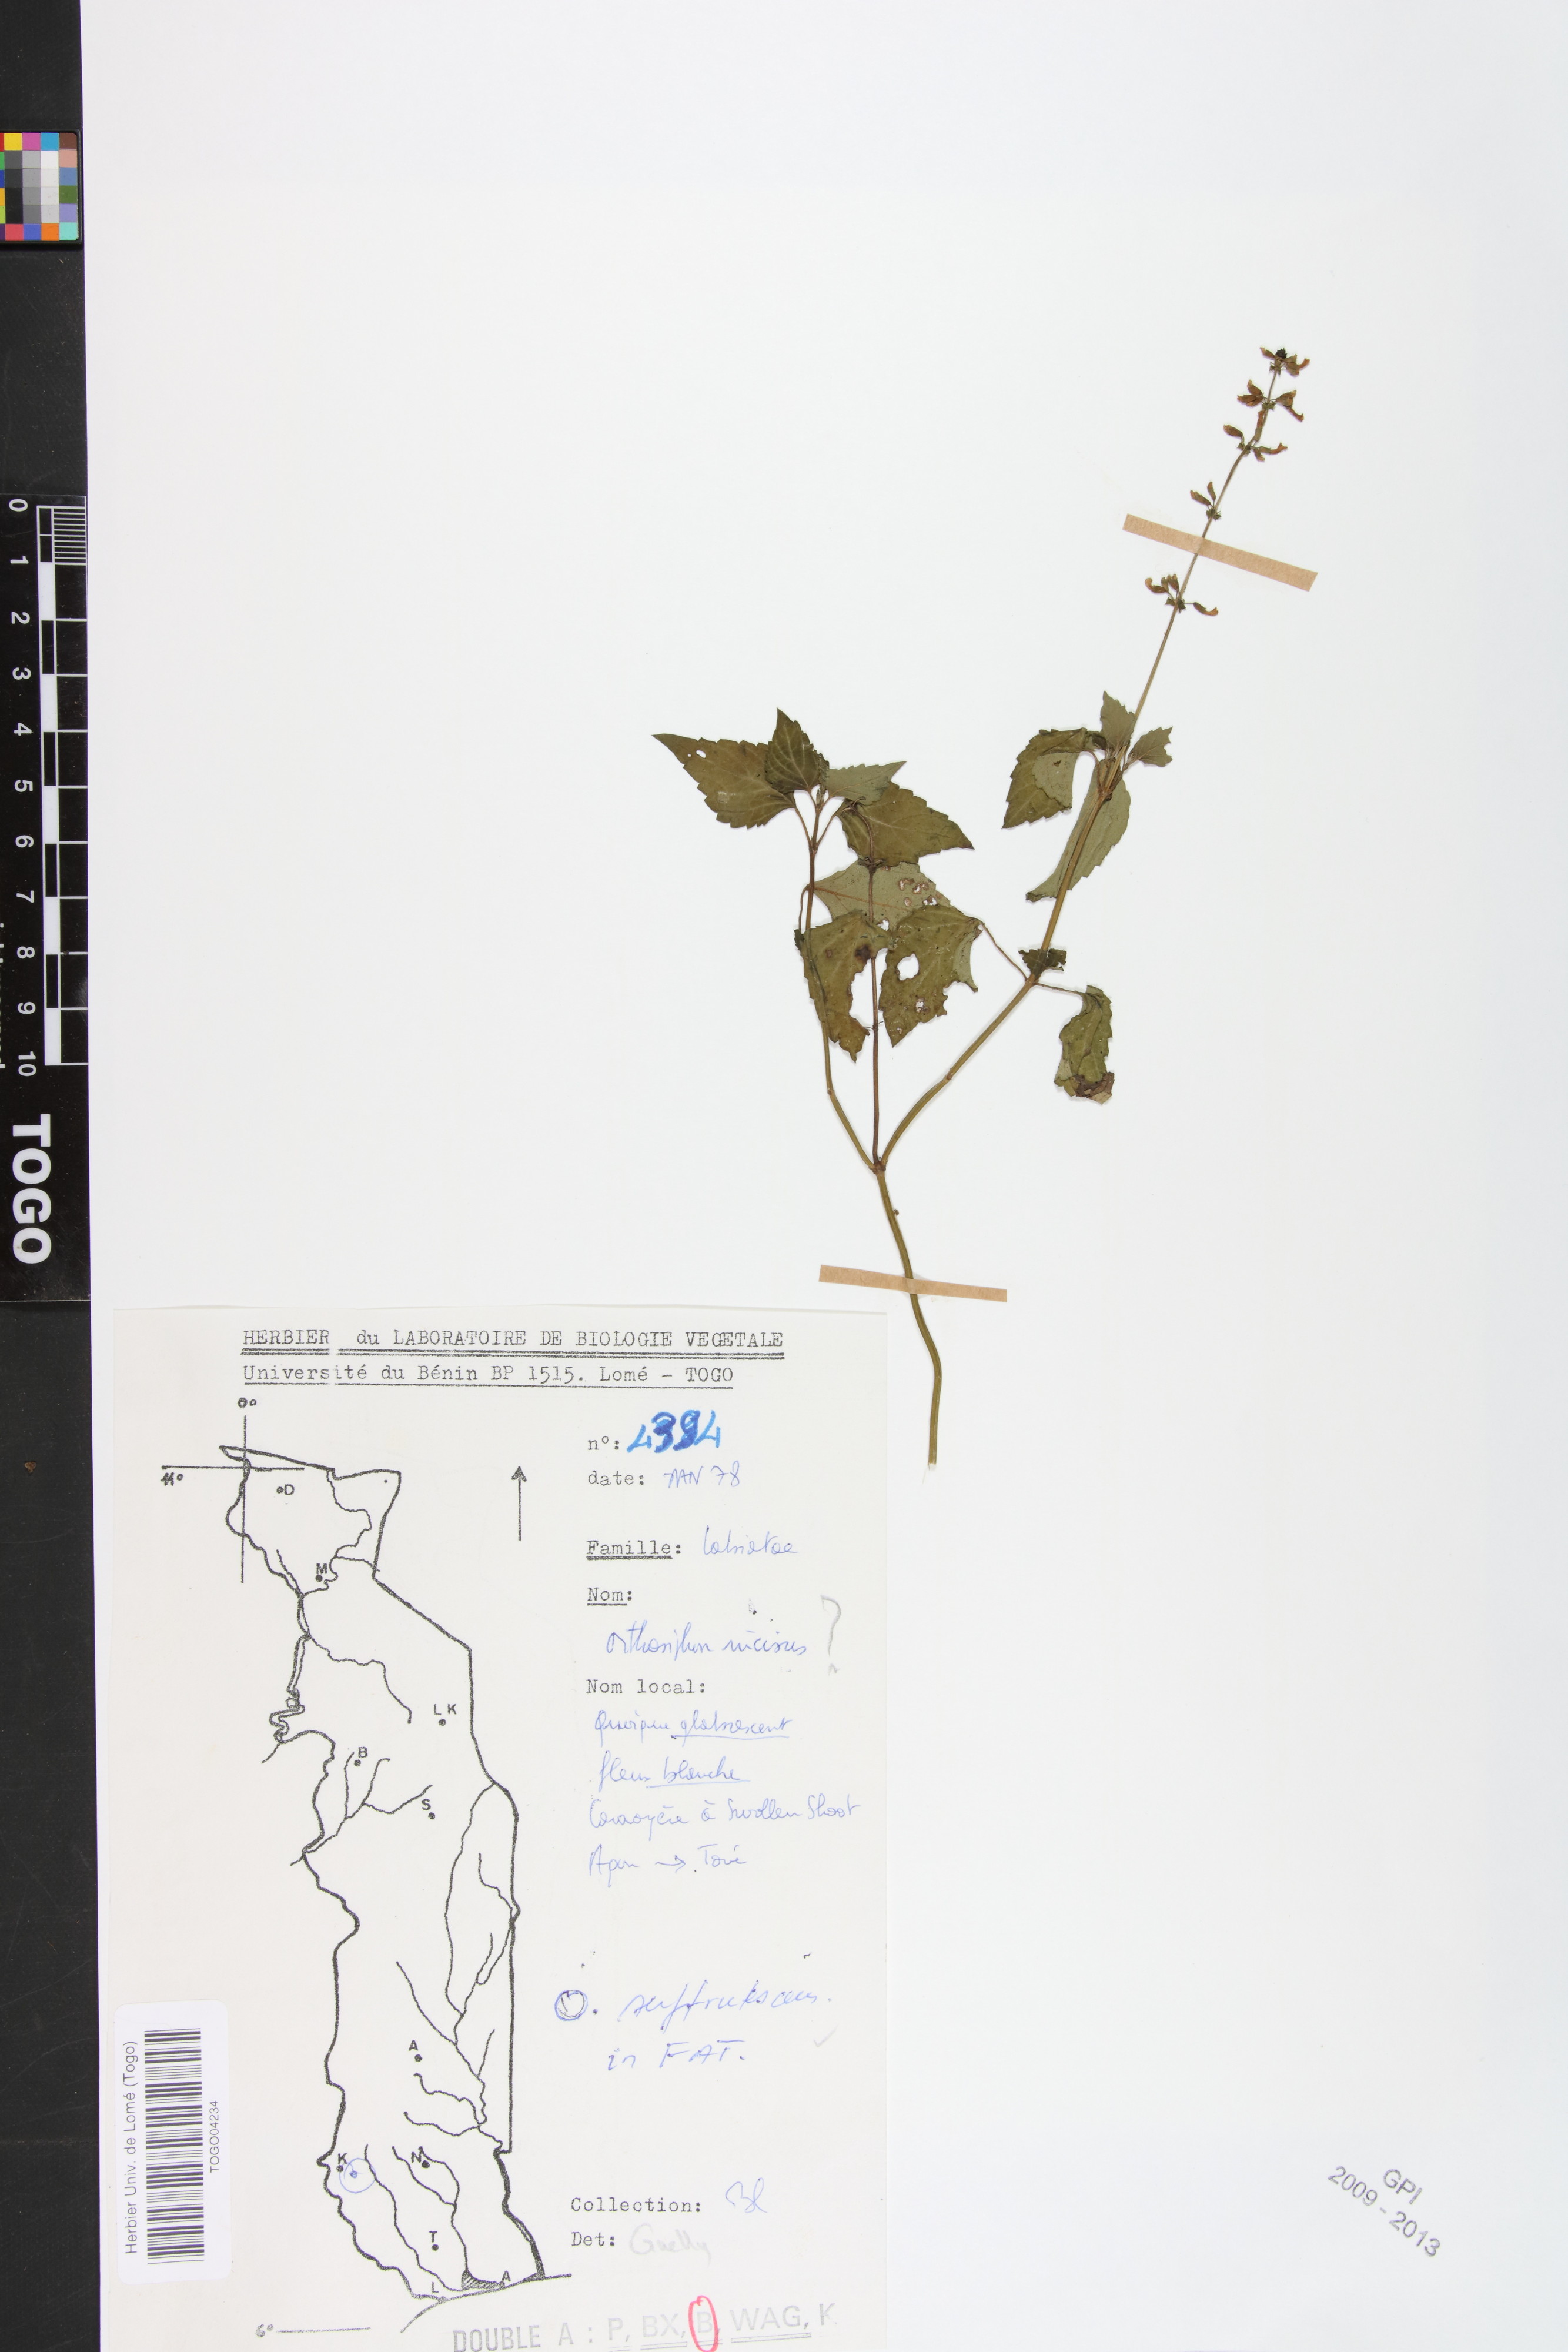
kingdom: Plantae
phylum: Tracheophyta
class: Magnoliopsida
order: Lamiales
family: Lamiaceae
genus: Orthosiphon
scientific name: Orthosiphon thymiflorus
